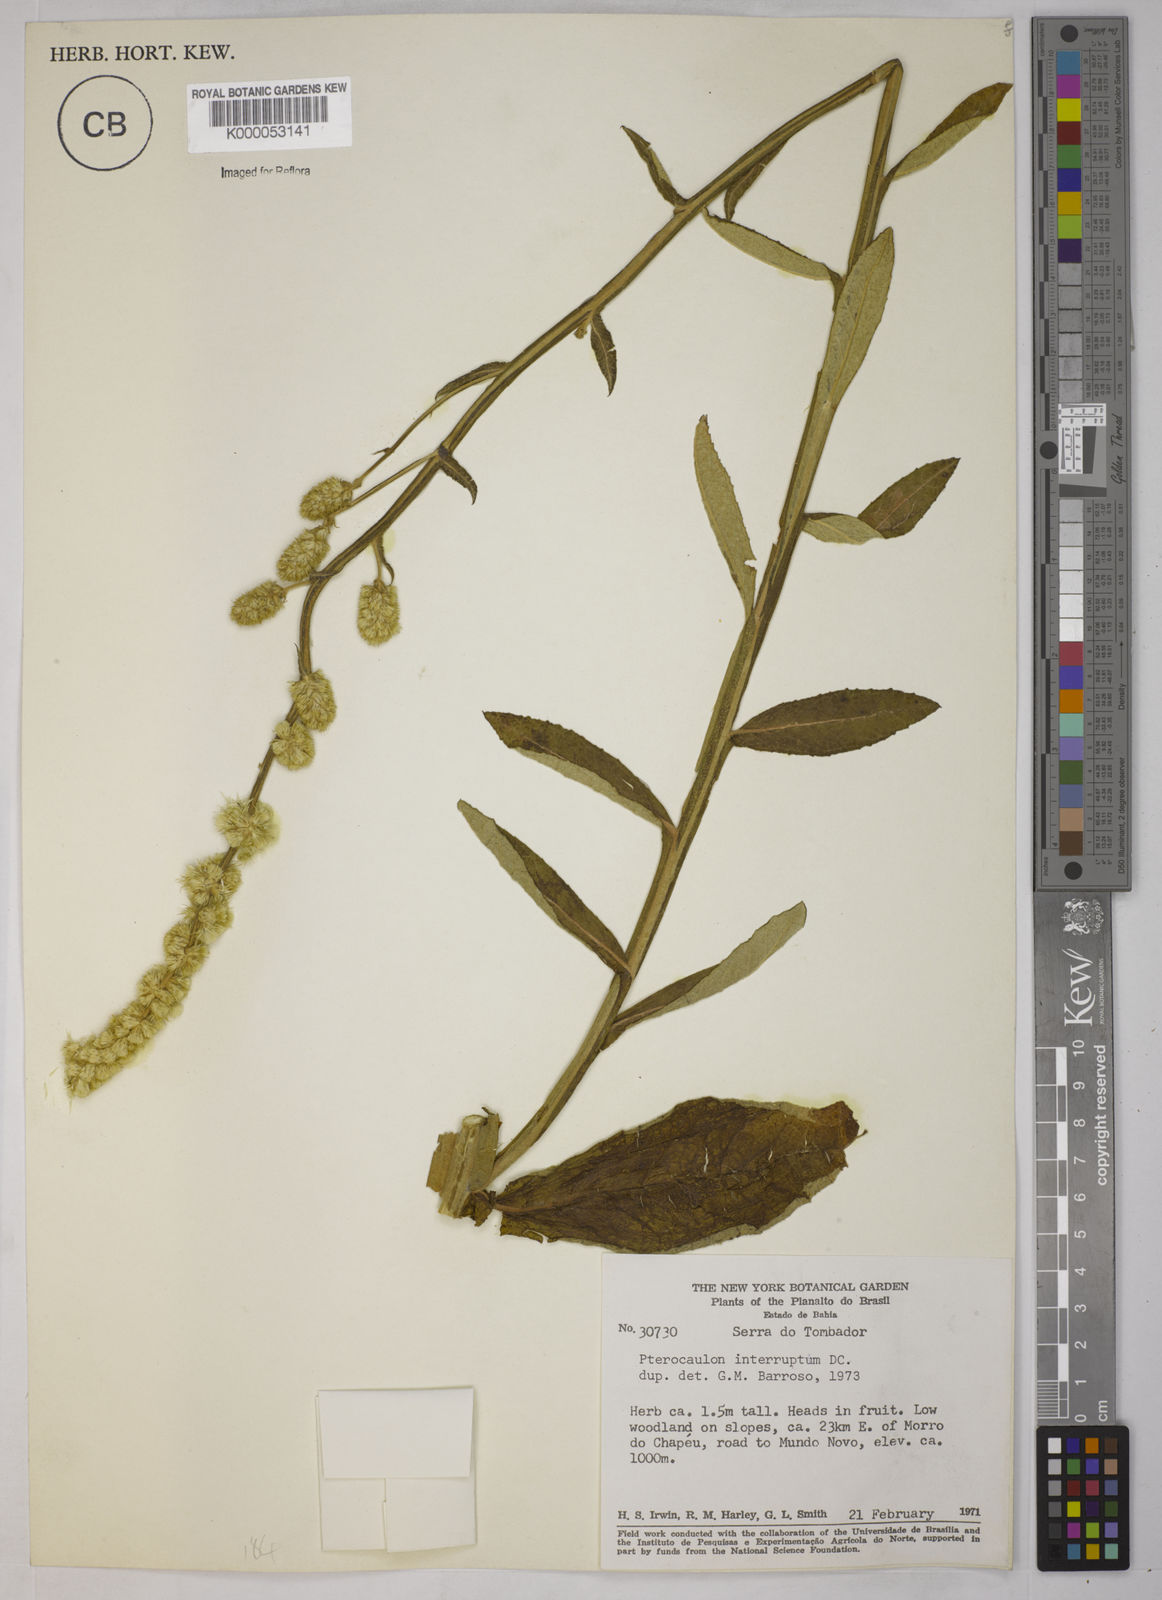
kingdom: Plantae
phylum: Tracheophyta
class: Magnoliopsida
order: Asterales
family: Asteraceae
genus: Pterocaulon
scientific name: Pterocaulon alopecuroides
